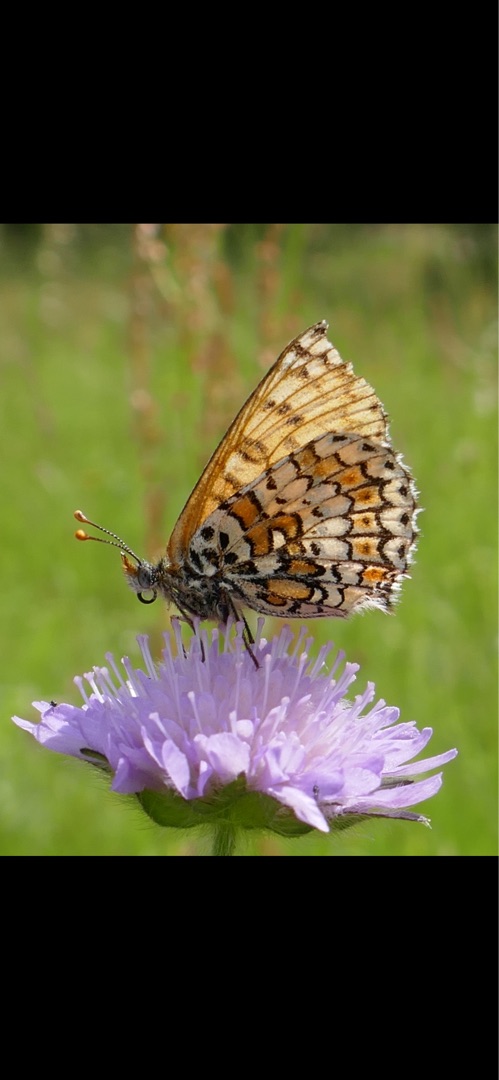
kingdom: Animalia
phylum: Arthropoda
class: Insecta
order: Lepidoptera
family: Nymphalidae
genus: Melitaea
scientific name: Melitaea cinxia
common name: Okkergul pletvinge
